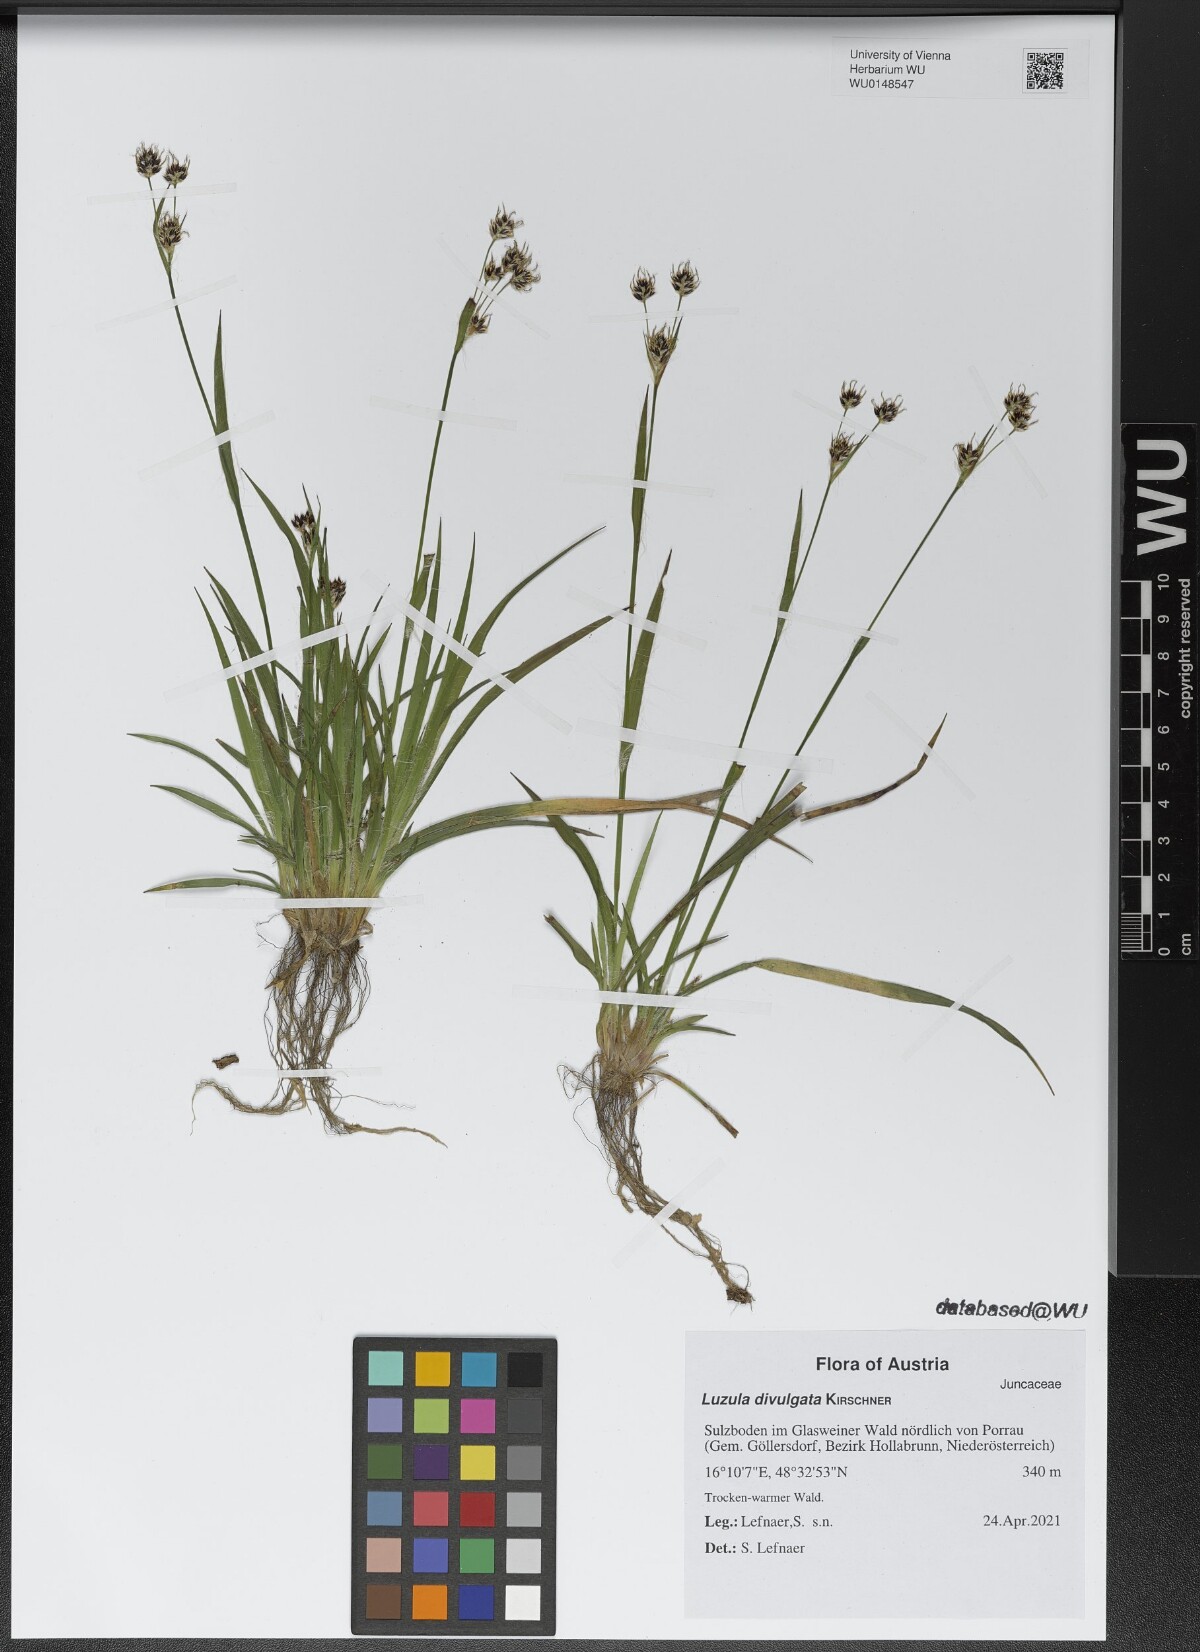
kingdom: Plantae
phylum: Tracheophyta
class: Liliopsida
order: Poales
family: Juncaceae
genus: Luzula
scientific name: Luzula divulgata
